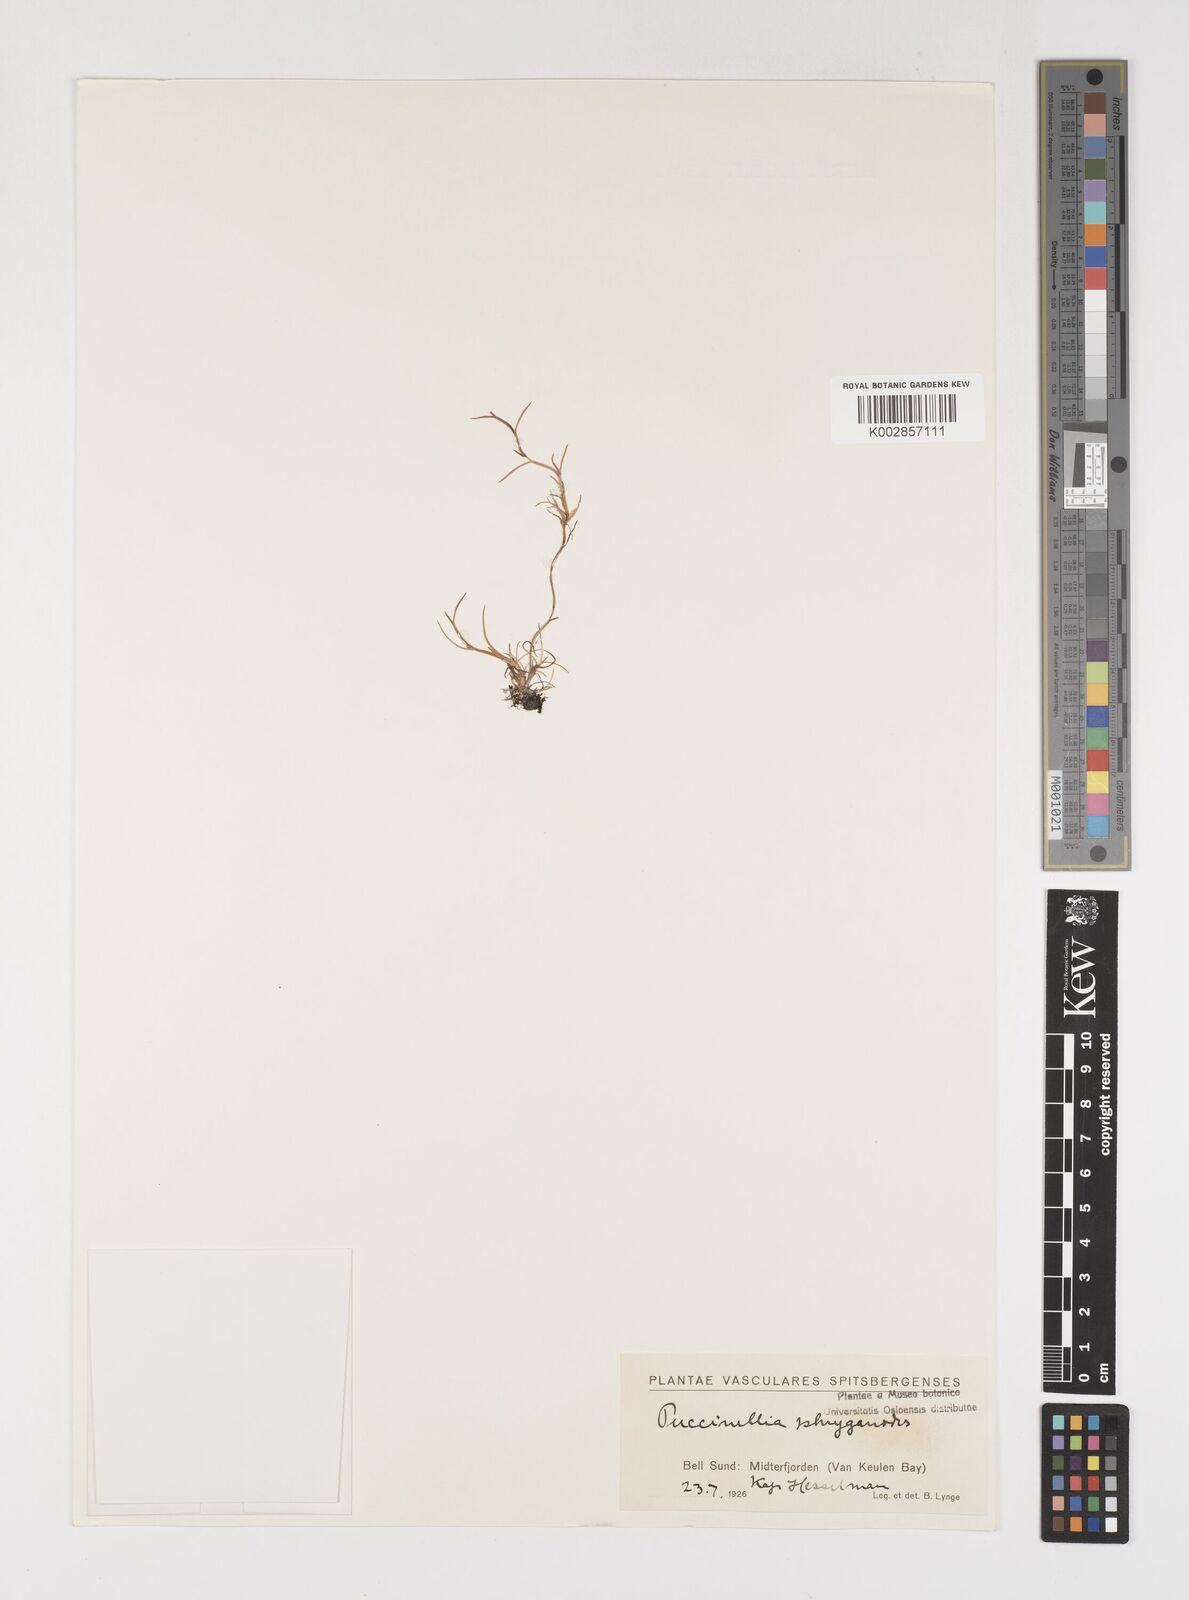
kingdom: Plantae
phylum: Tracheophyta
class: Liliopsida
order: Poales
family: Poaceae
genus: Puccinellia
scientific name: Puccinellia phryganodes
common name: Creeping alkaligrass
